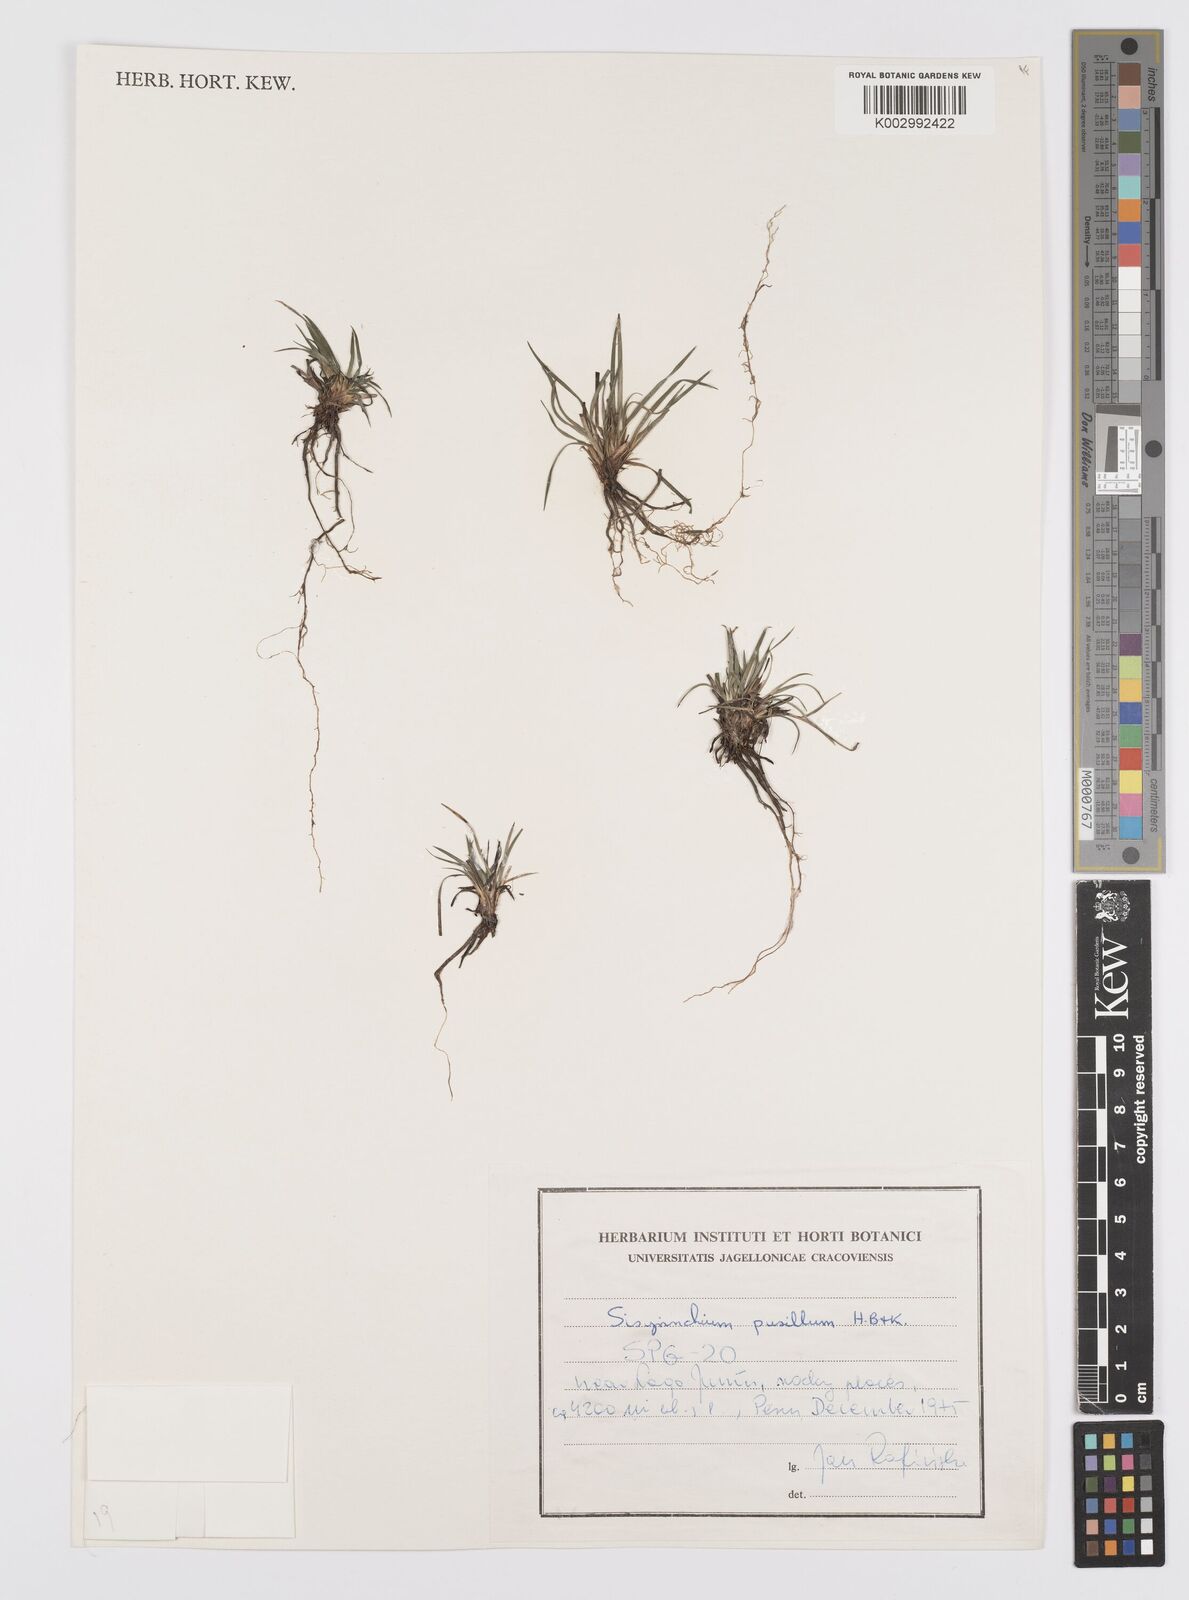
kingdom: Plantae
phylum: Tracheophyta
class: Liliopsida
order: Asparagales
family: Iridaceae
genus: Sisyrinchium
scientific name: Sisyrinchium pusillum
